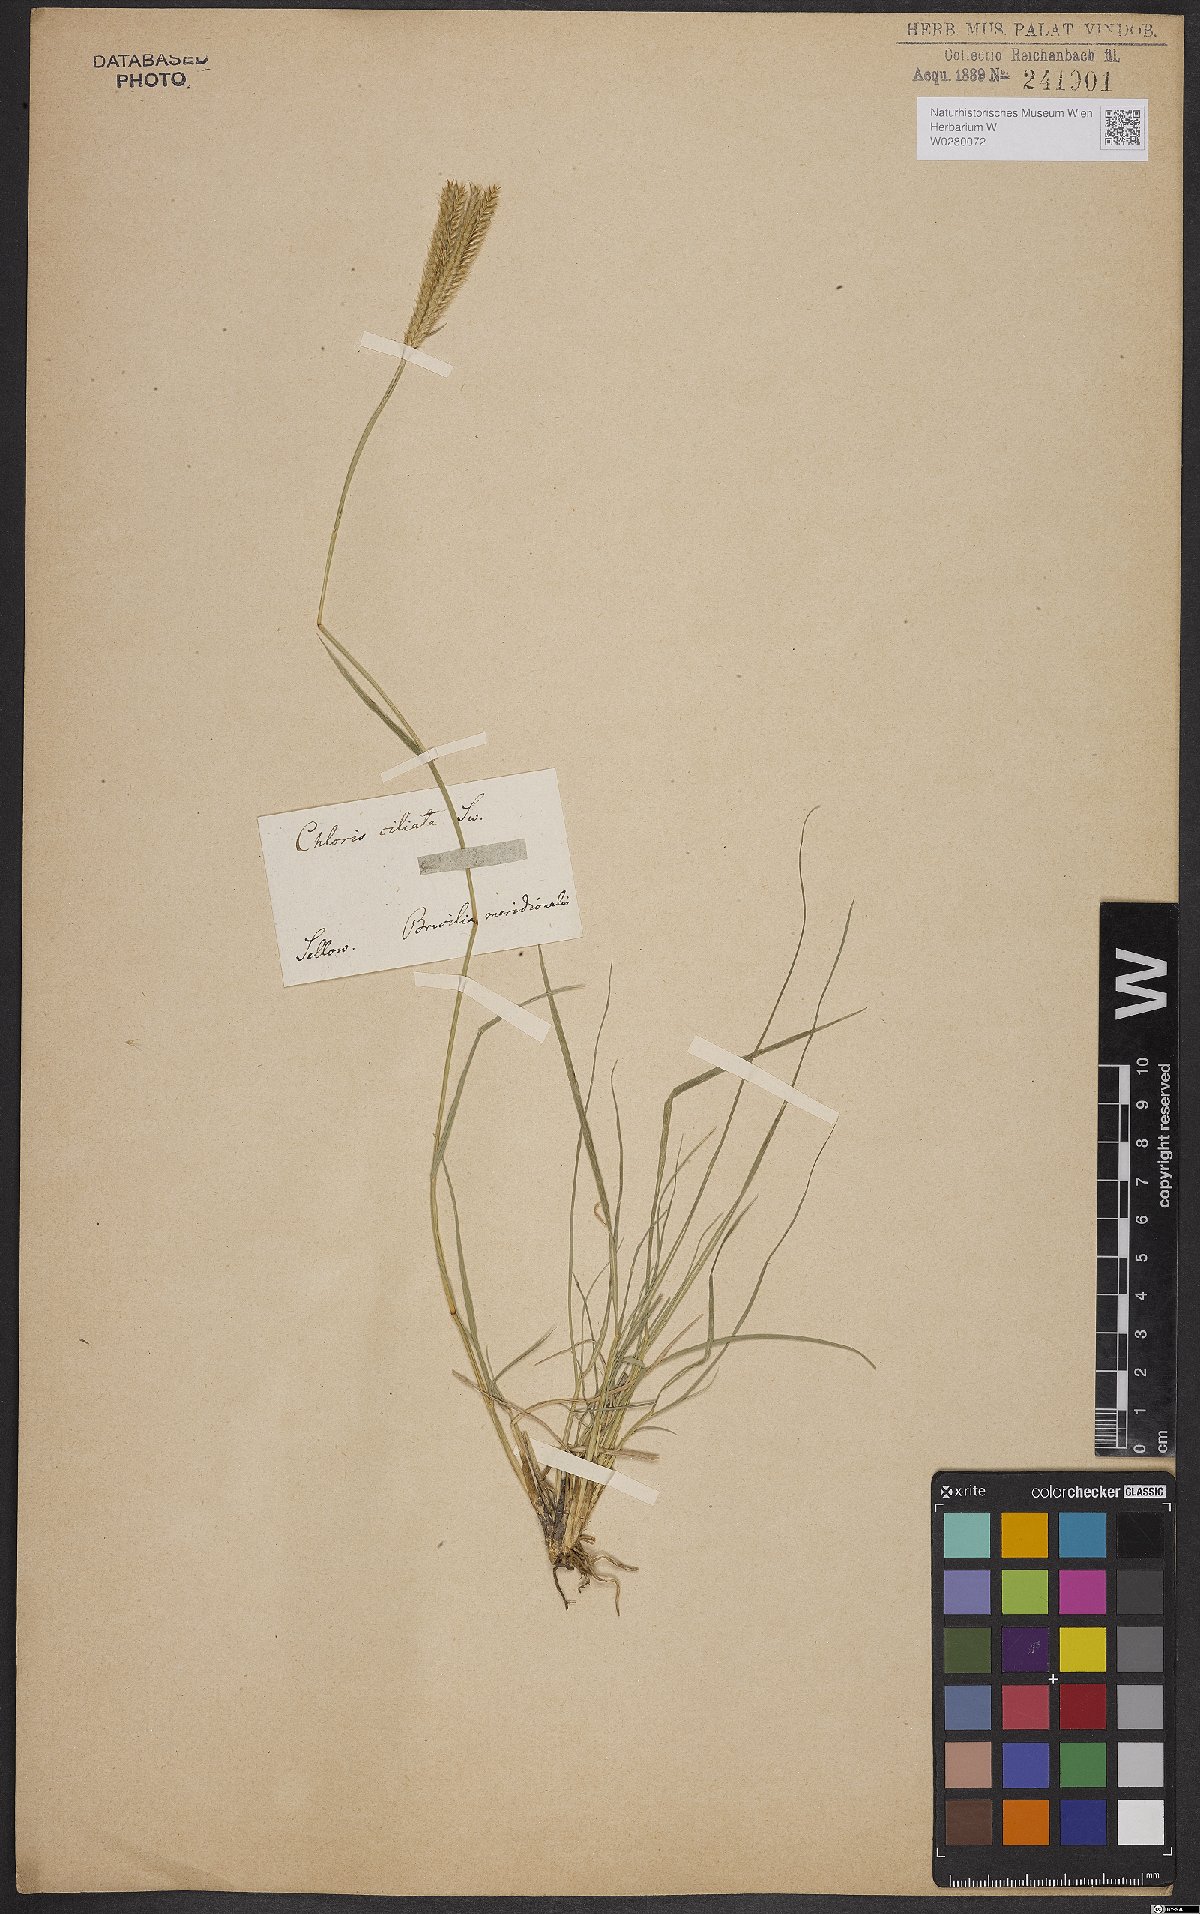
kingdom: Plantae
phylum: Tracheophyta
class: Liliopsida
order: Poales
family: Poaceae
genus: Stapfochloa
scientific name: Stapfochloa ciliata
